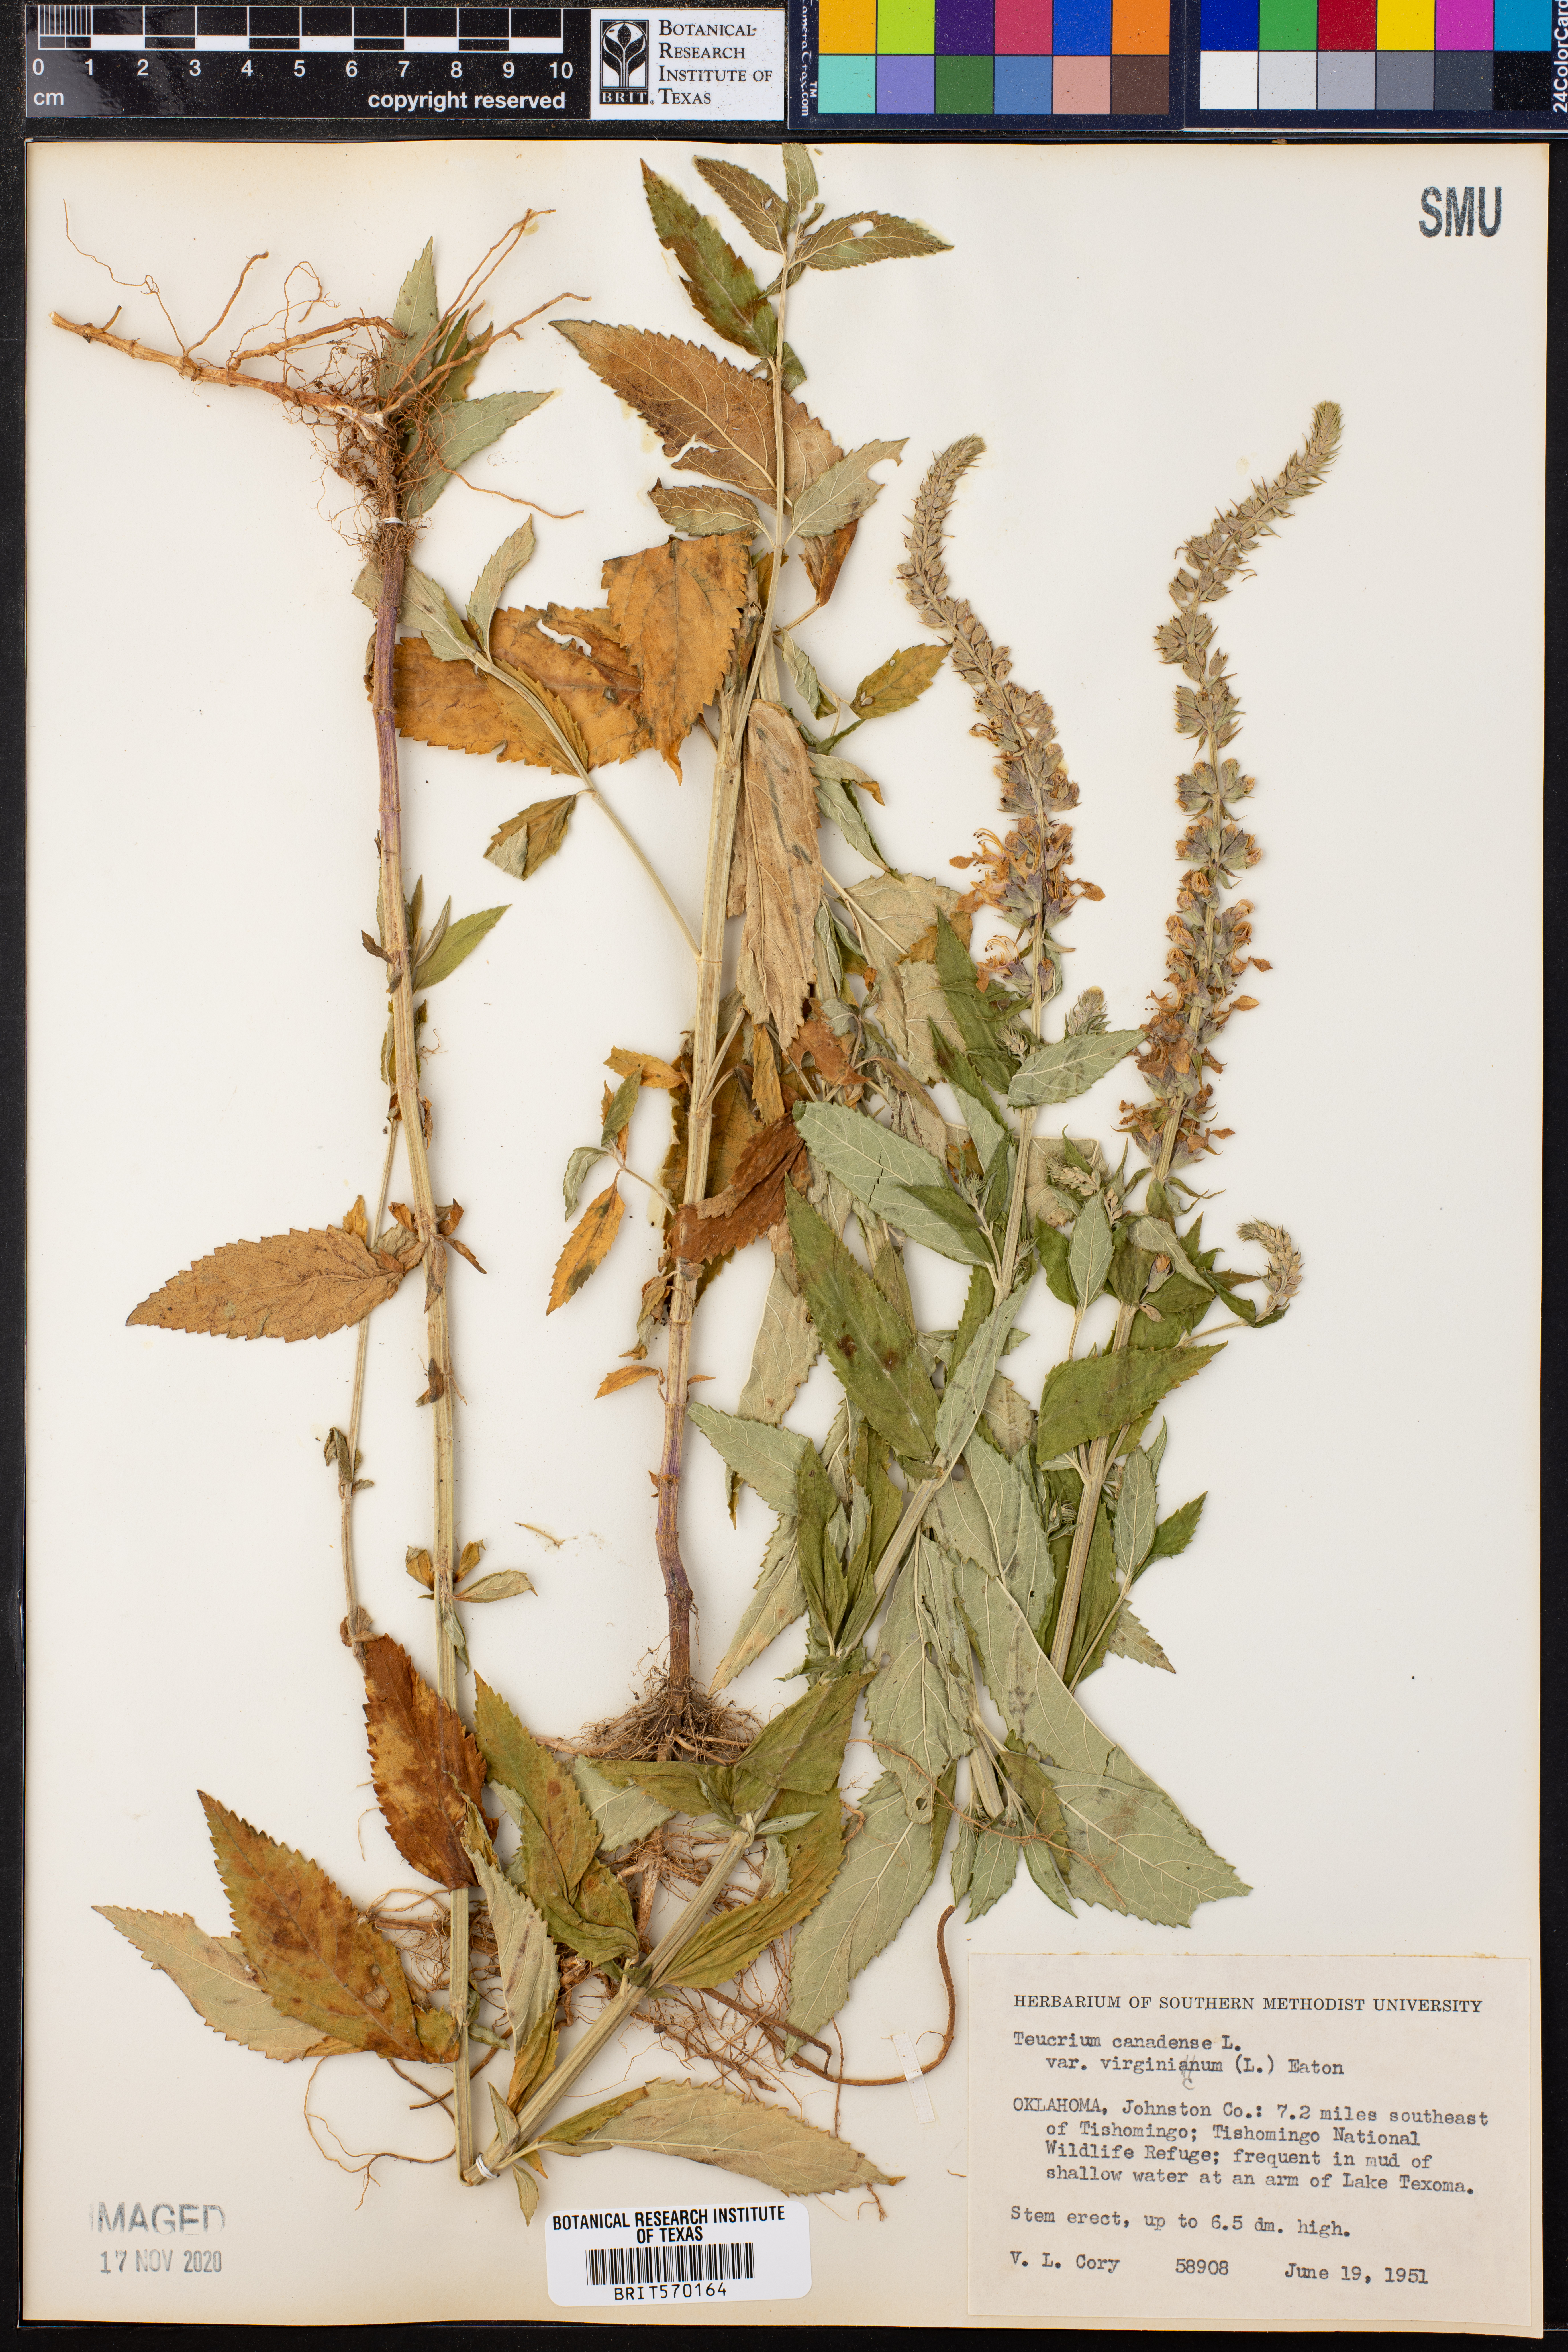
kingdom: Plantae
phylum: Tracheophyta
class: Magnoliopsida
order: Lamiales
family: Lamiaceae
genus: Teucrium
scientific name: Teucrium canadense
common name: American germander
